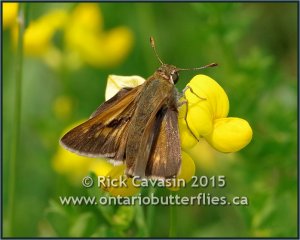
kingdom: Animalia
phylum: Arthropoda
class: Insecta
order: Lepidoptera
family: Hesperiidae
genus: Polites
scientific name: Polites
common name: Crossline Skipper
